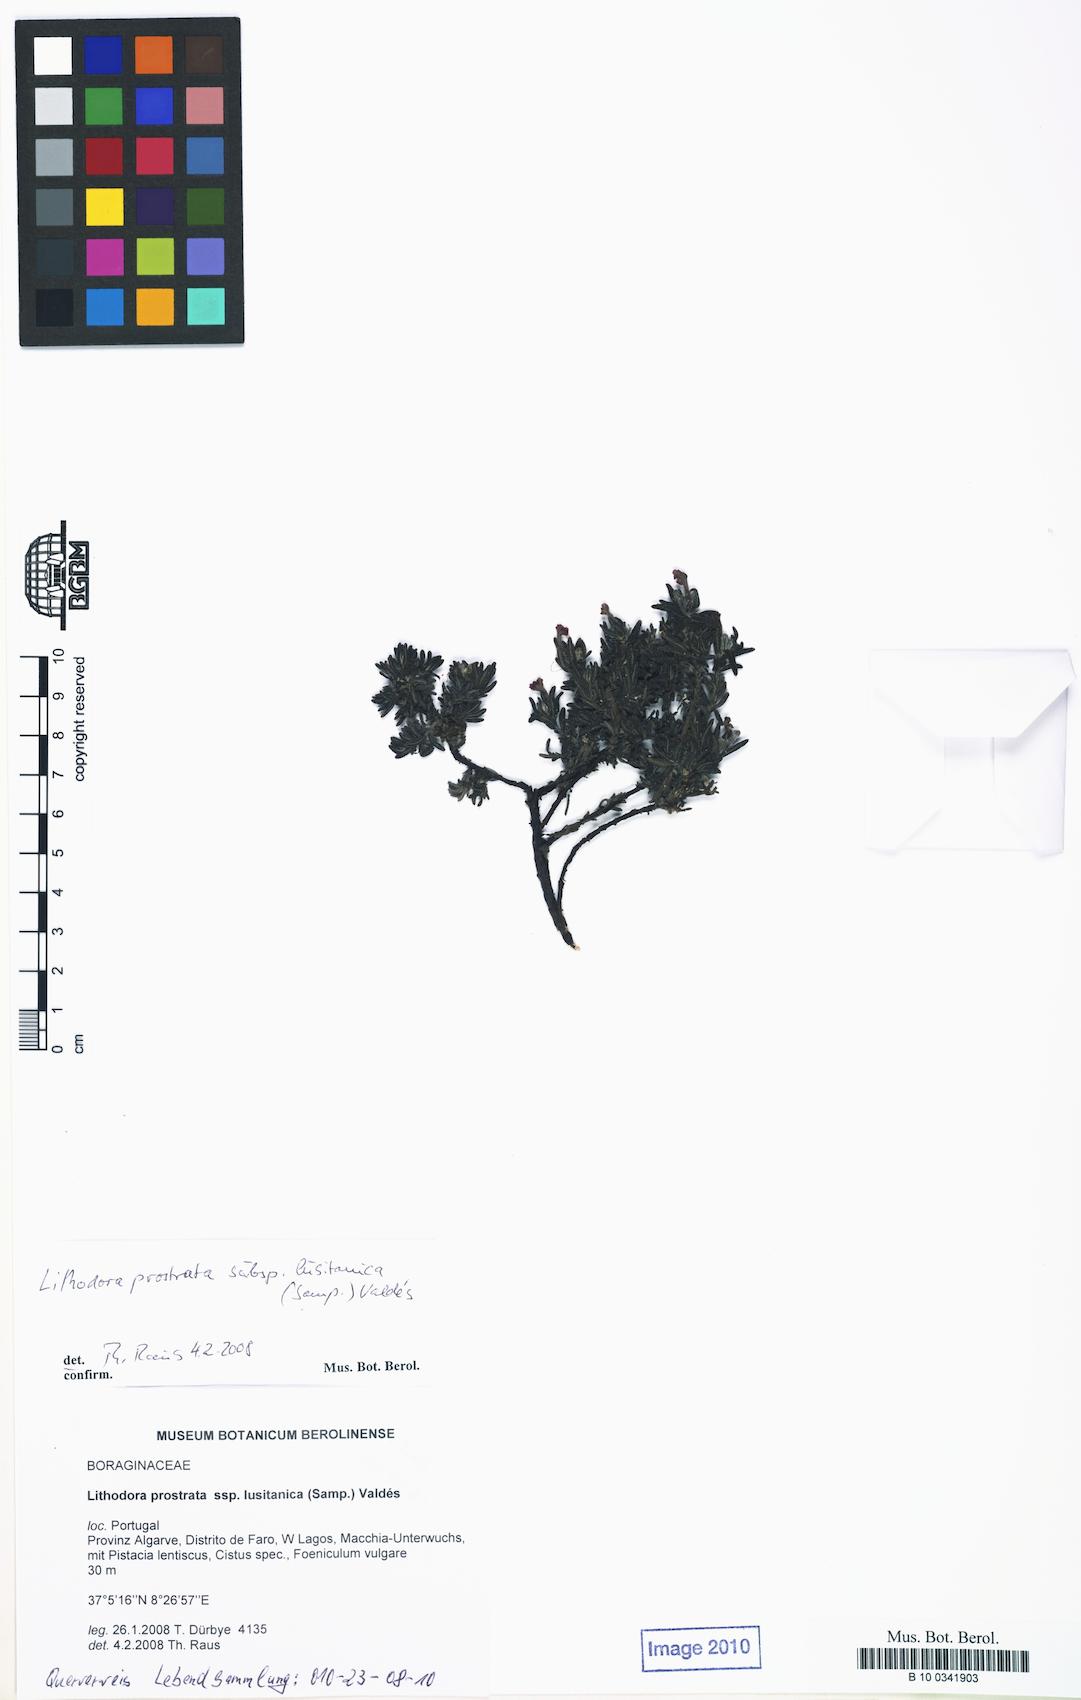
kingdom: Plantae
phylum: Tracheophyta
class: Magnoliopsida
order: Boraginales
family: Boraginaceae
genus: Glandora
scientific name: Glandora prostrata
